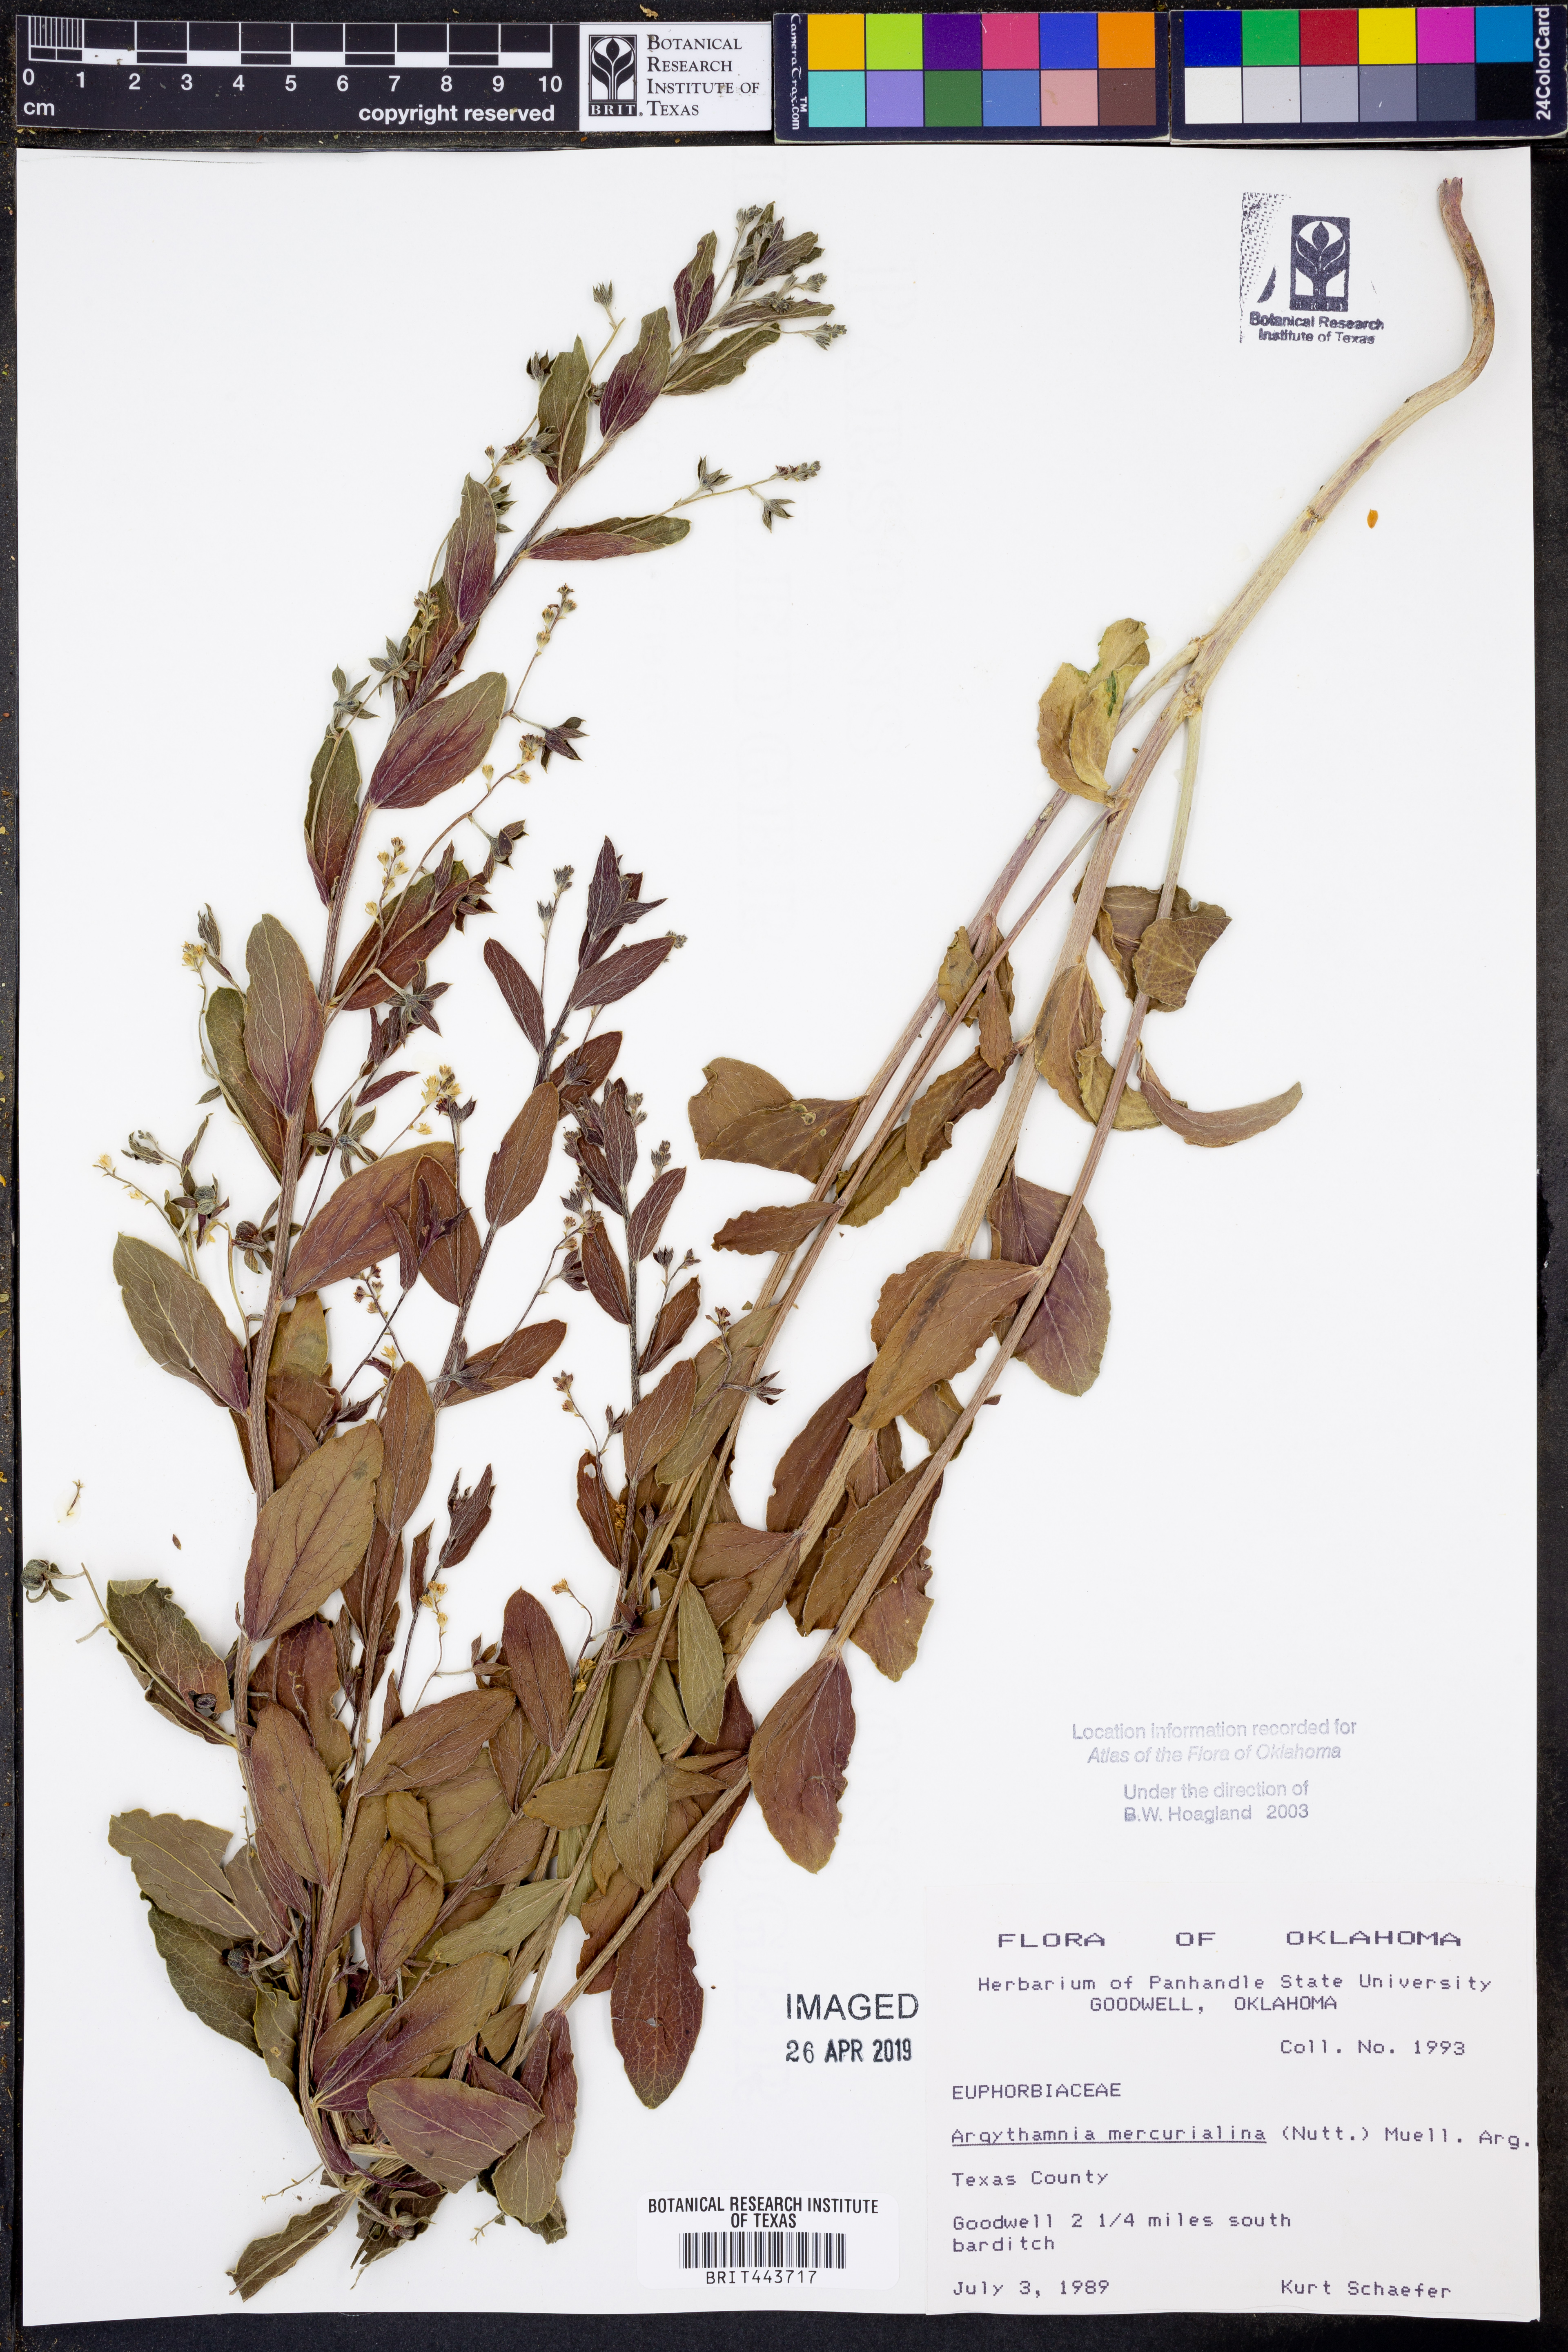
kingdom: Plantae
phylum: Tracheophyta
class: Magnoliopsida
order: Malpighiales
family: Euphorbiaceae
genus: Ditaxis
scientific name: Ditaxis mercurialina
